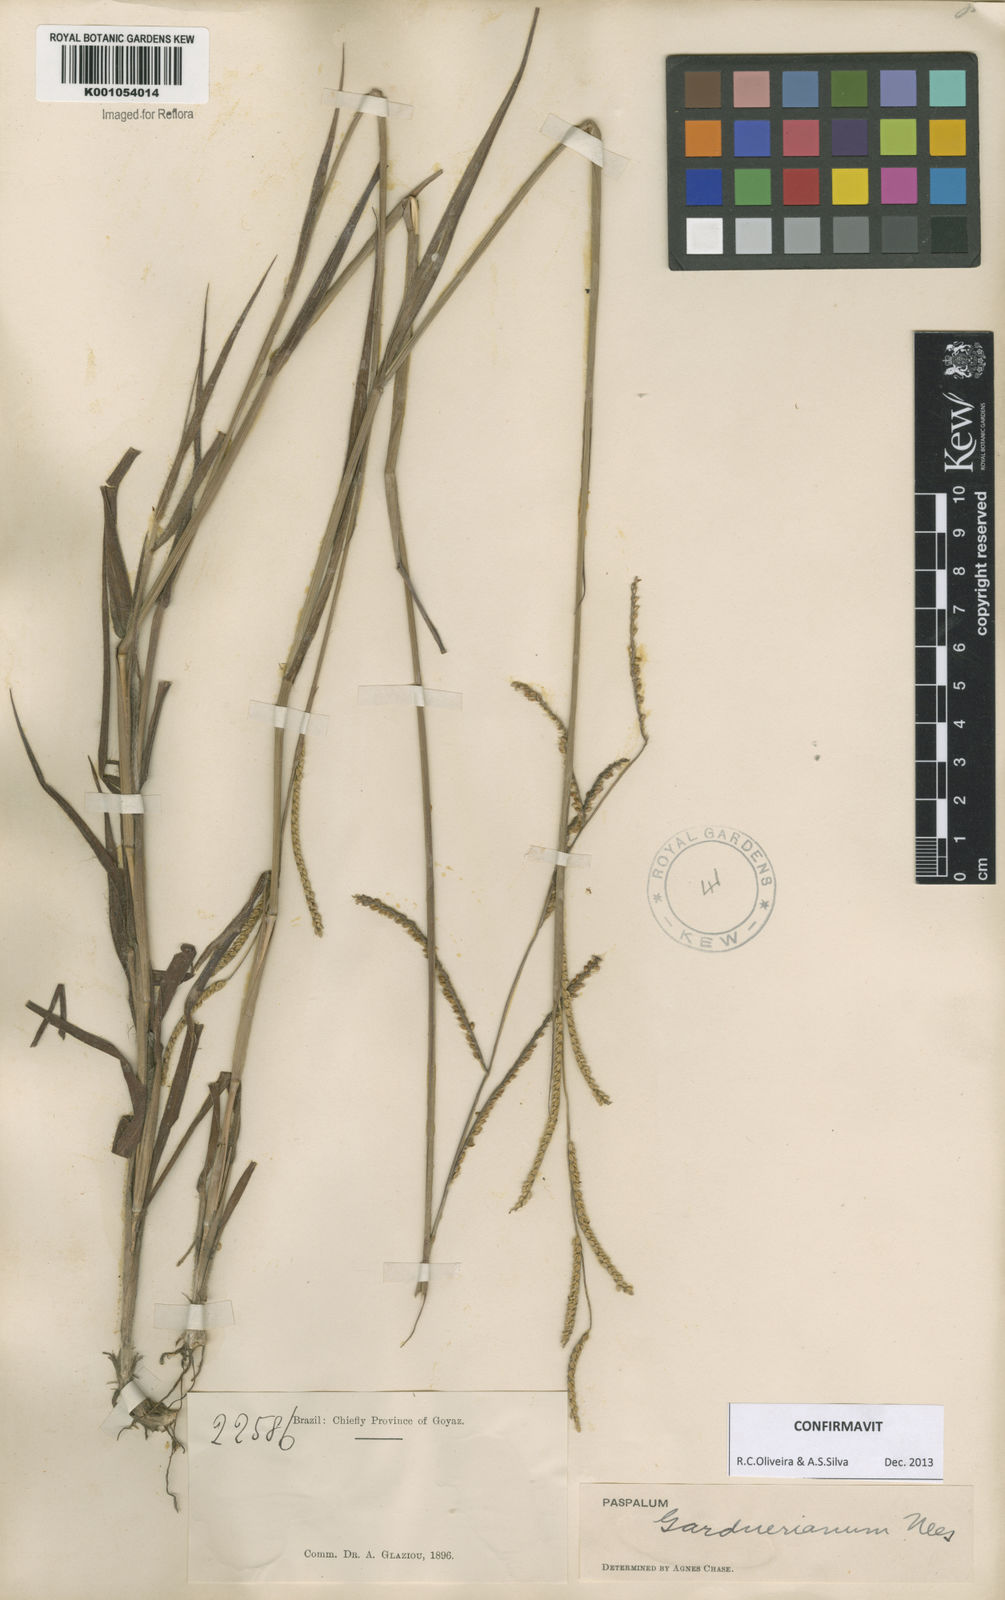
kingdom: Plantae
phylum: Tracheophyta
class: Liliopsida
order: Poales
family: Poaceae
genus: Paspalum
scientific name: Paspalum gardnerianum
